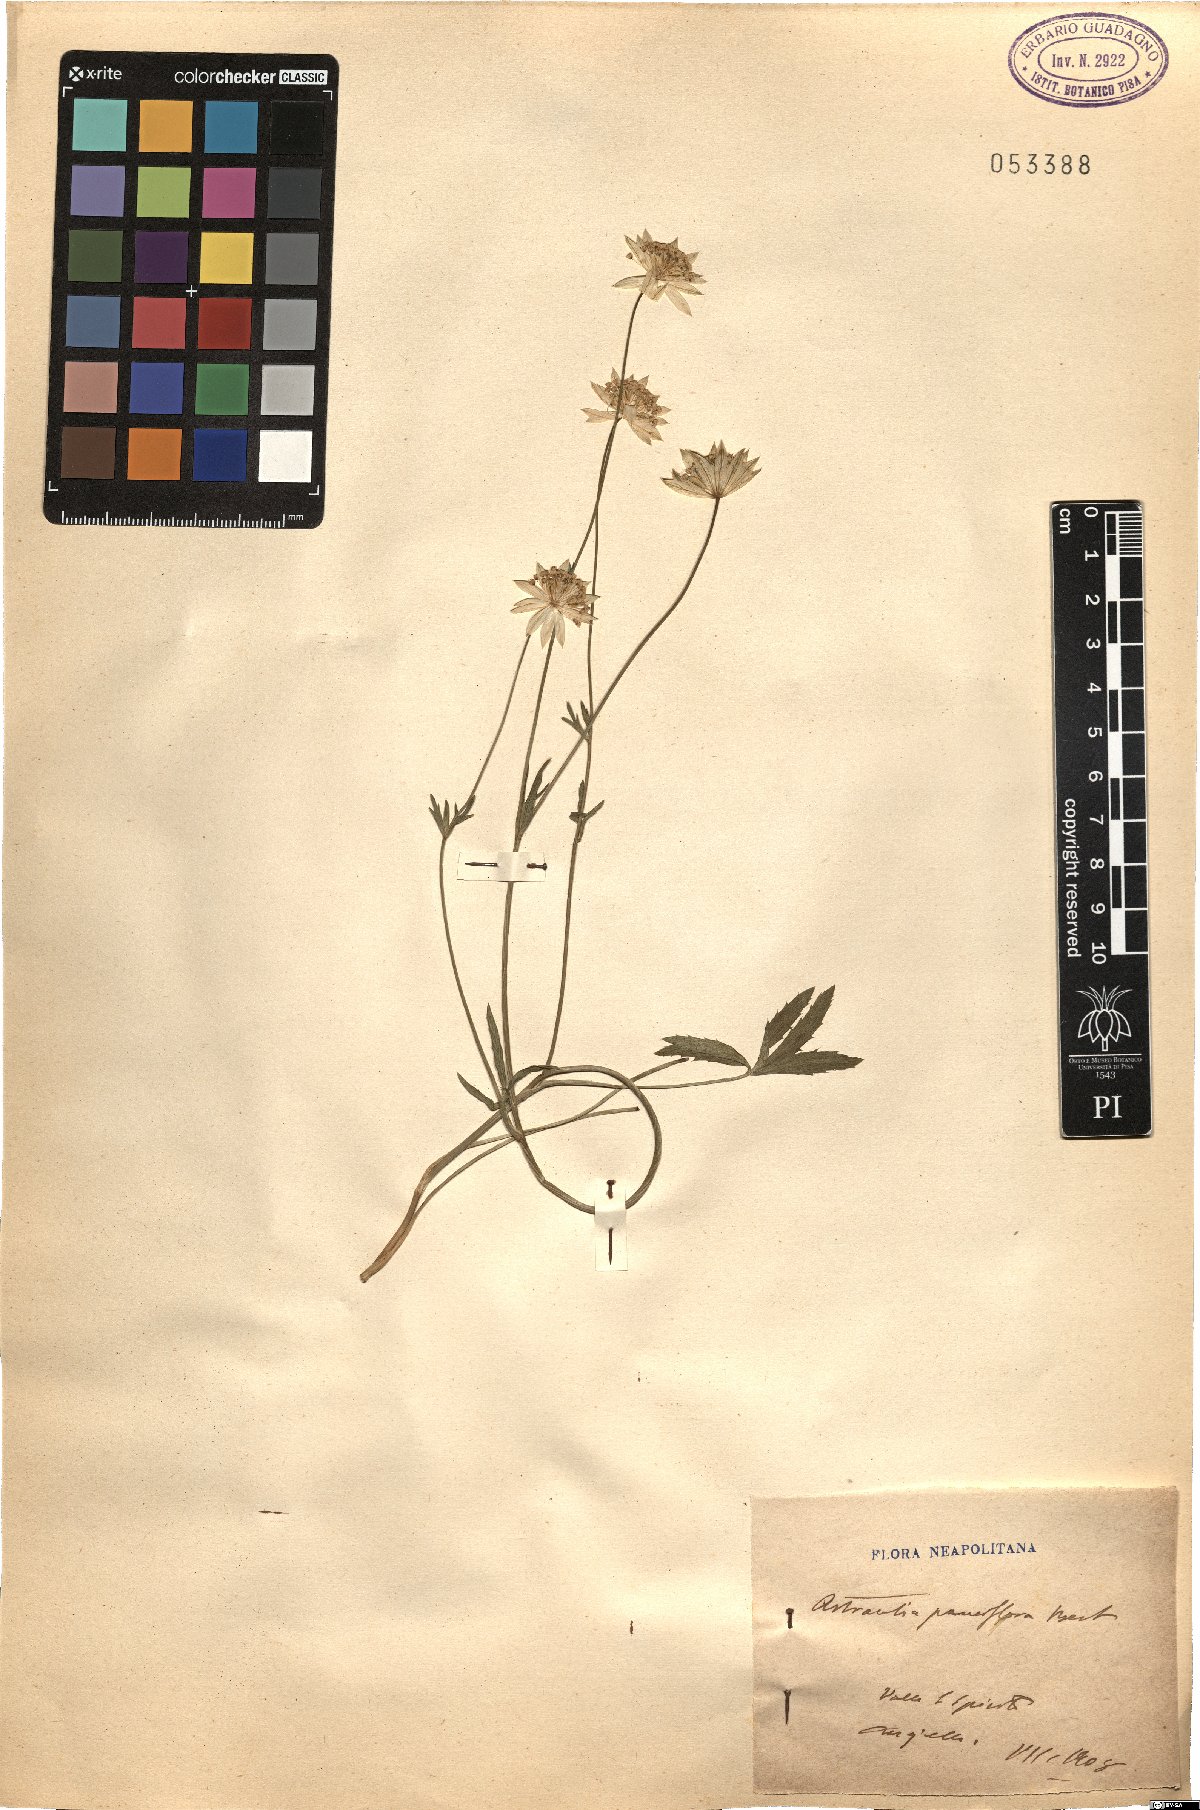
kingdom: Plantae
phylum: Tracheophyta
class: Magnoliopsida
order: Apiales
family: Apiaceae
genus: Astrantia
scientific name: Astrantia pauciflora
